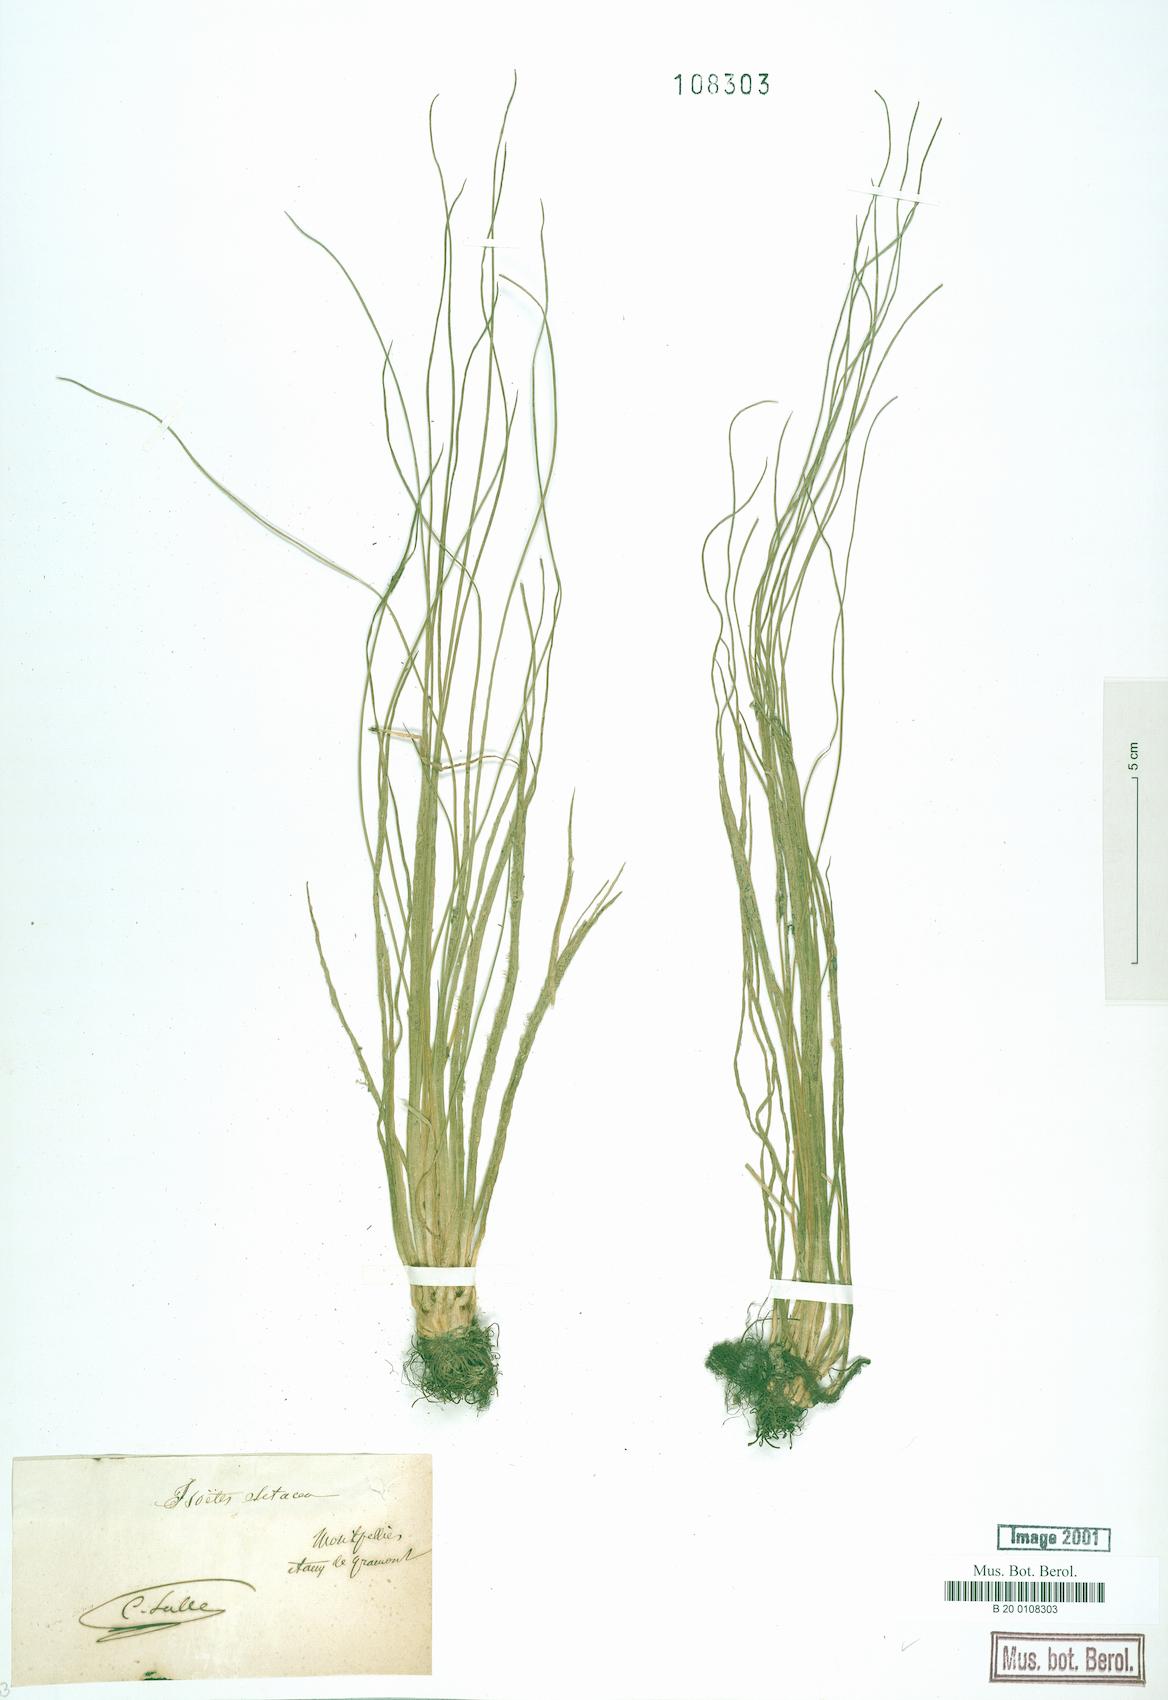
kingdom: Plantae
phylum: Tracheophyta
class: Lycopodiopsida
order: Isoetales
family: Isoetaceae
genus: Isoetes
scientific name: Isoetes lacustris
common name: Common quillwort
